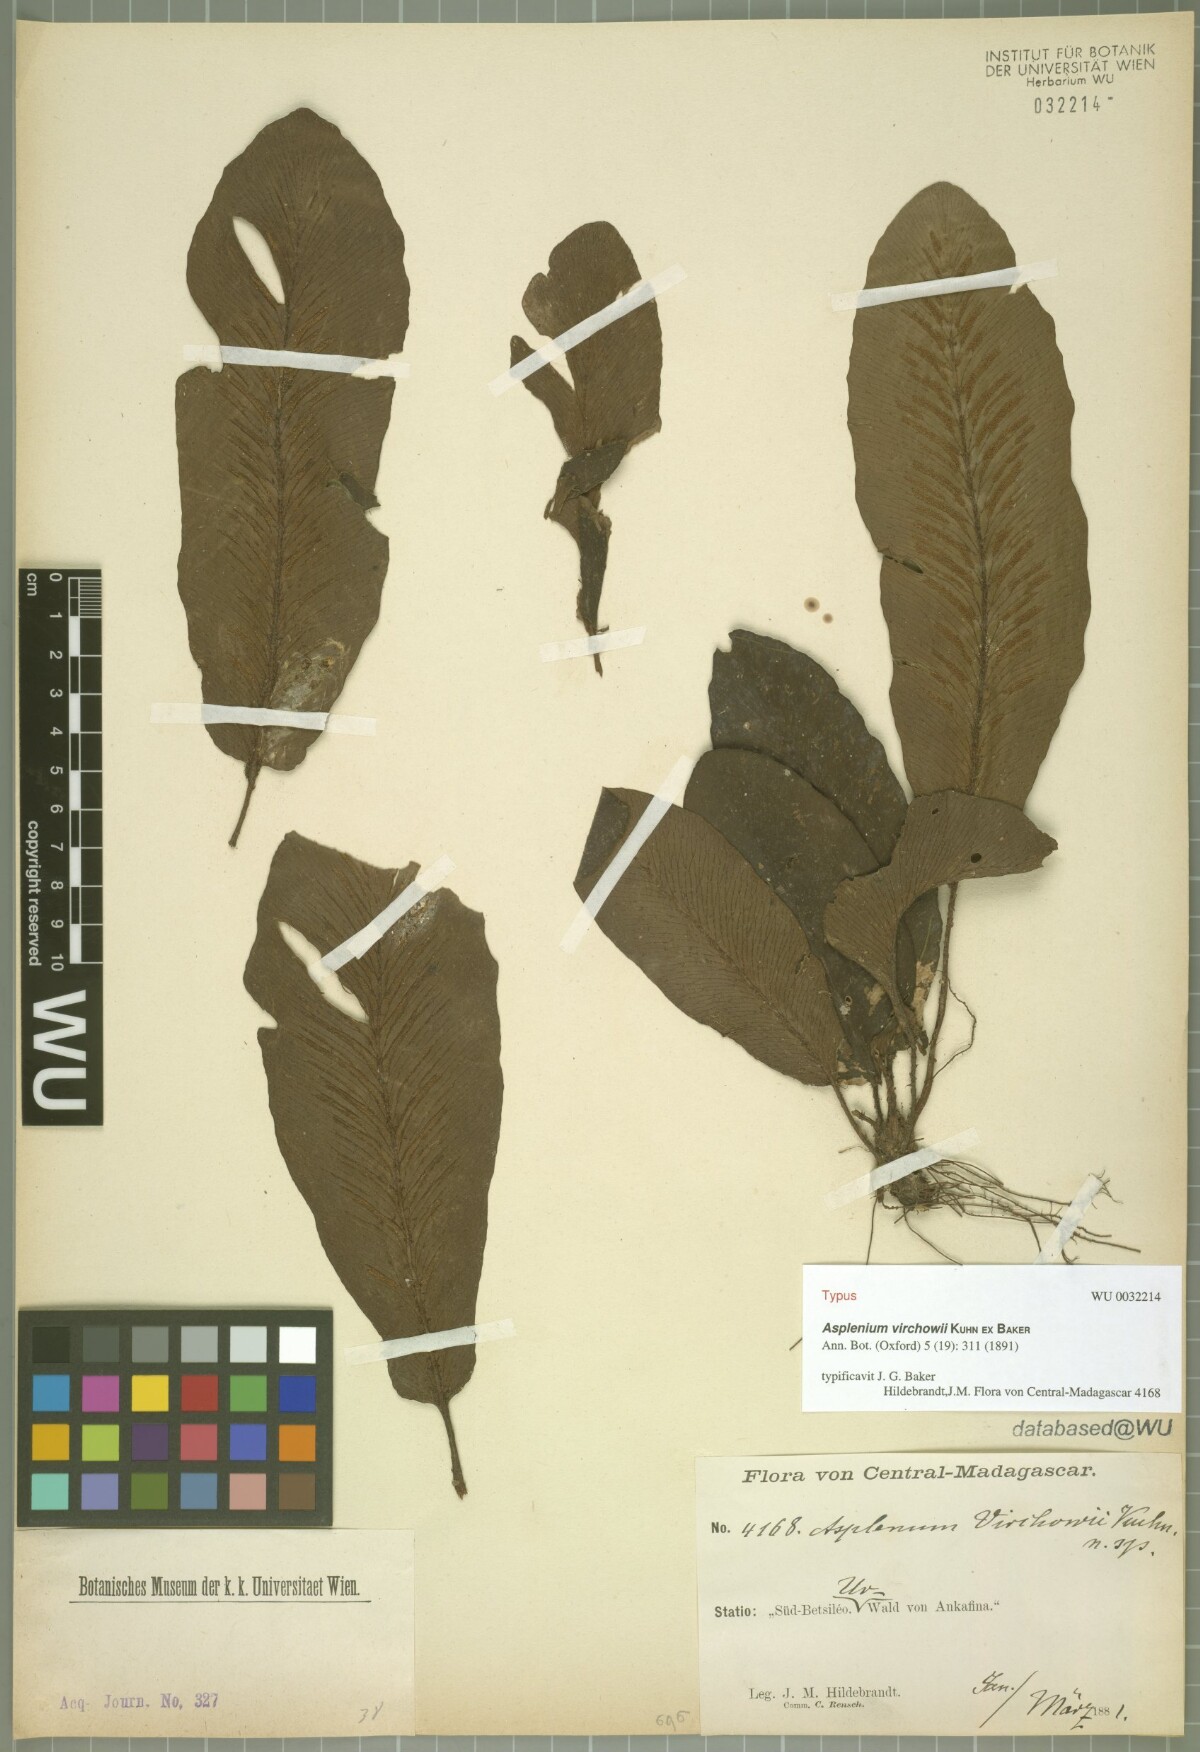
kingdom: Plantae
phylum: Tracheophyta
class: Polypodiopsida
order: Polypodiales
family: Aspleniaceae
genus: Asplenium
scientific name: Asplenium virchowii
